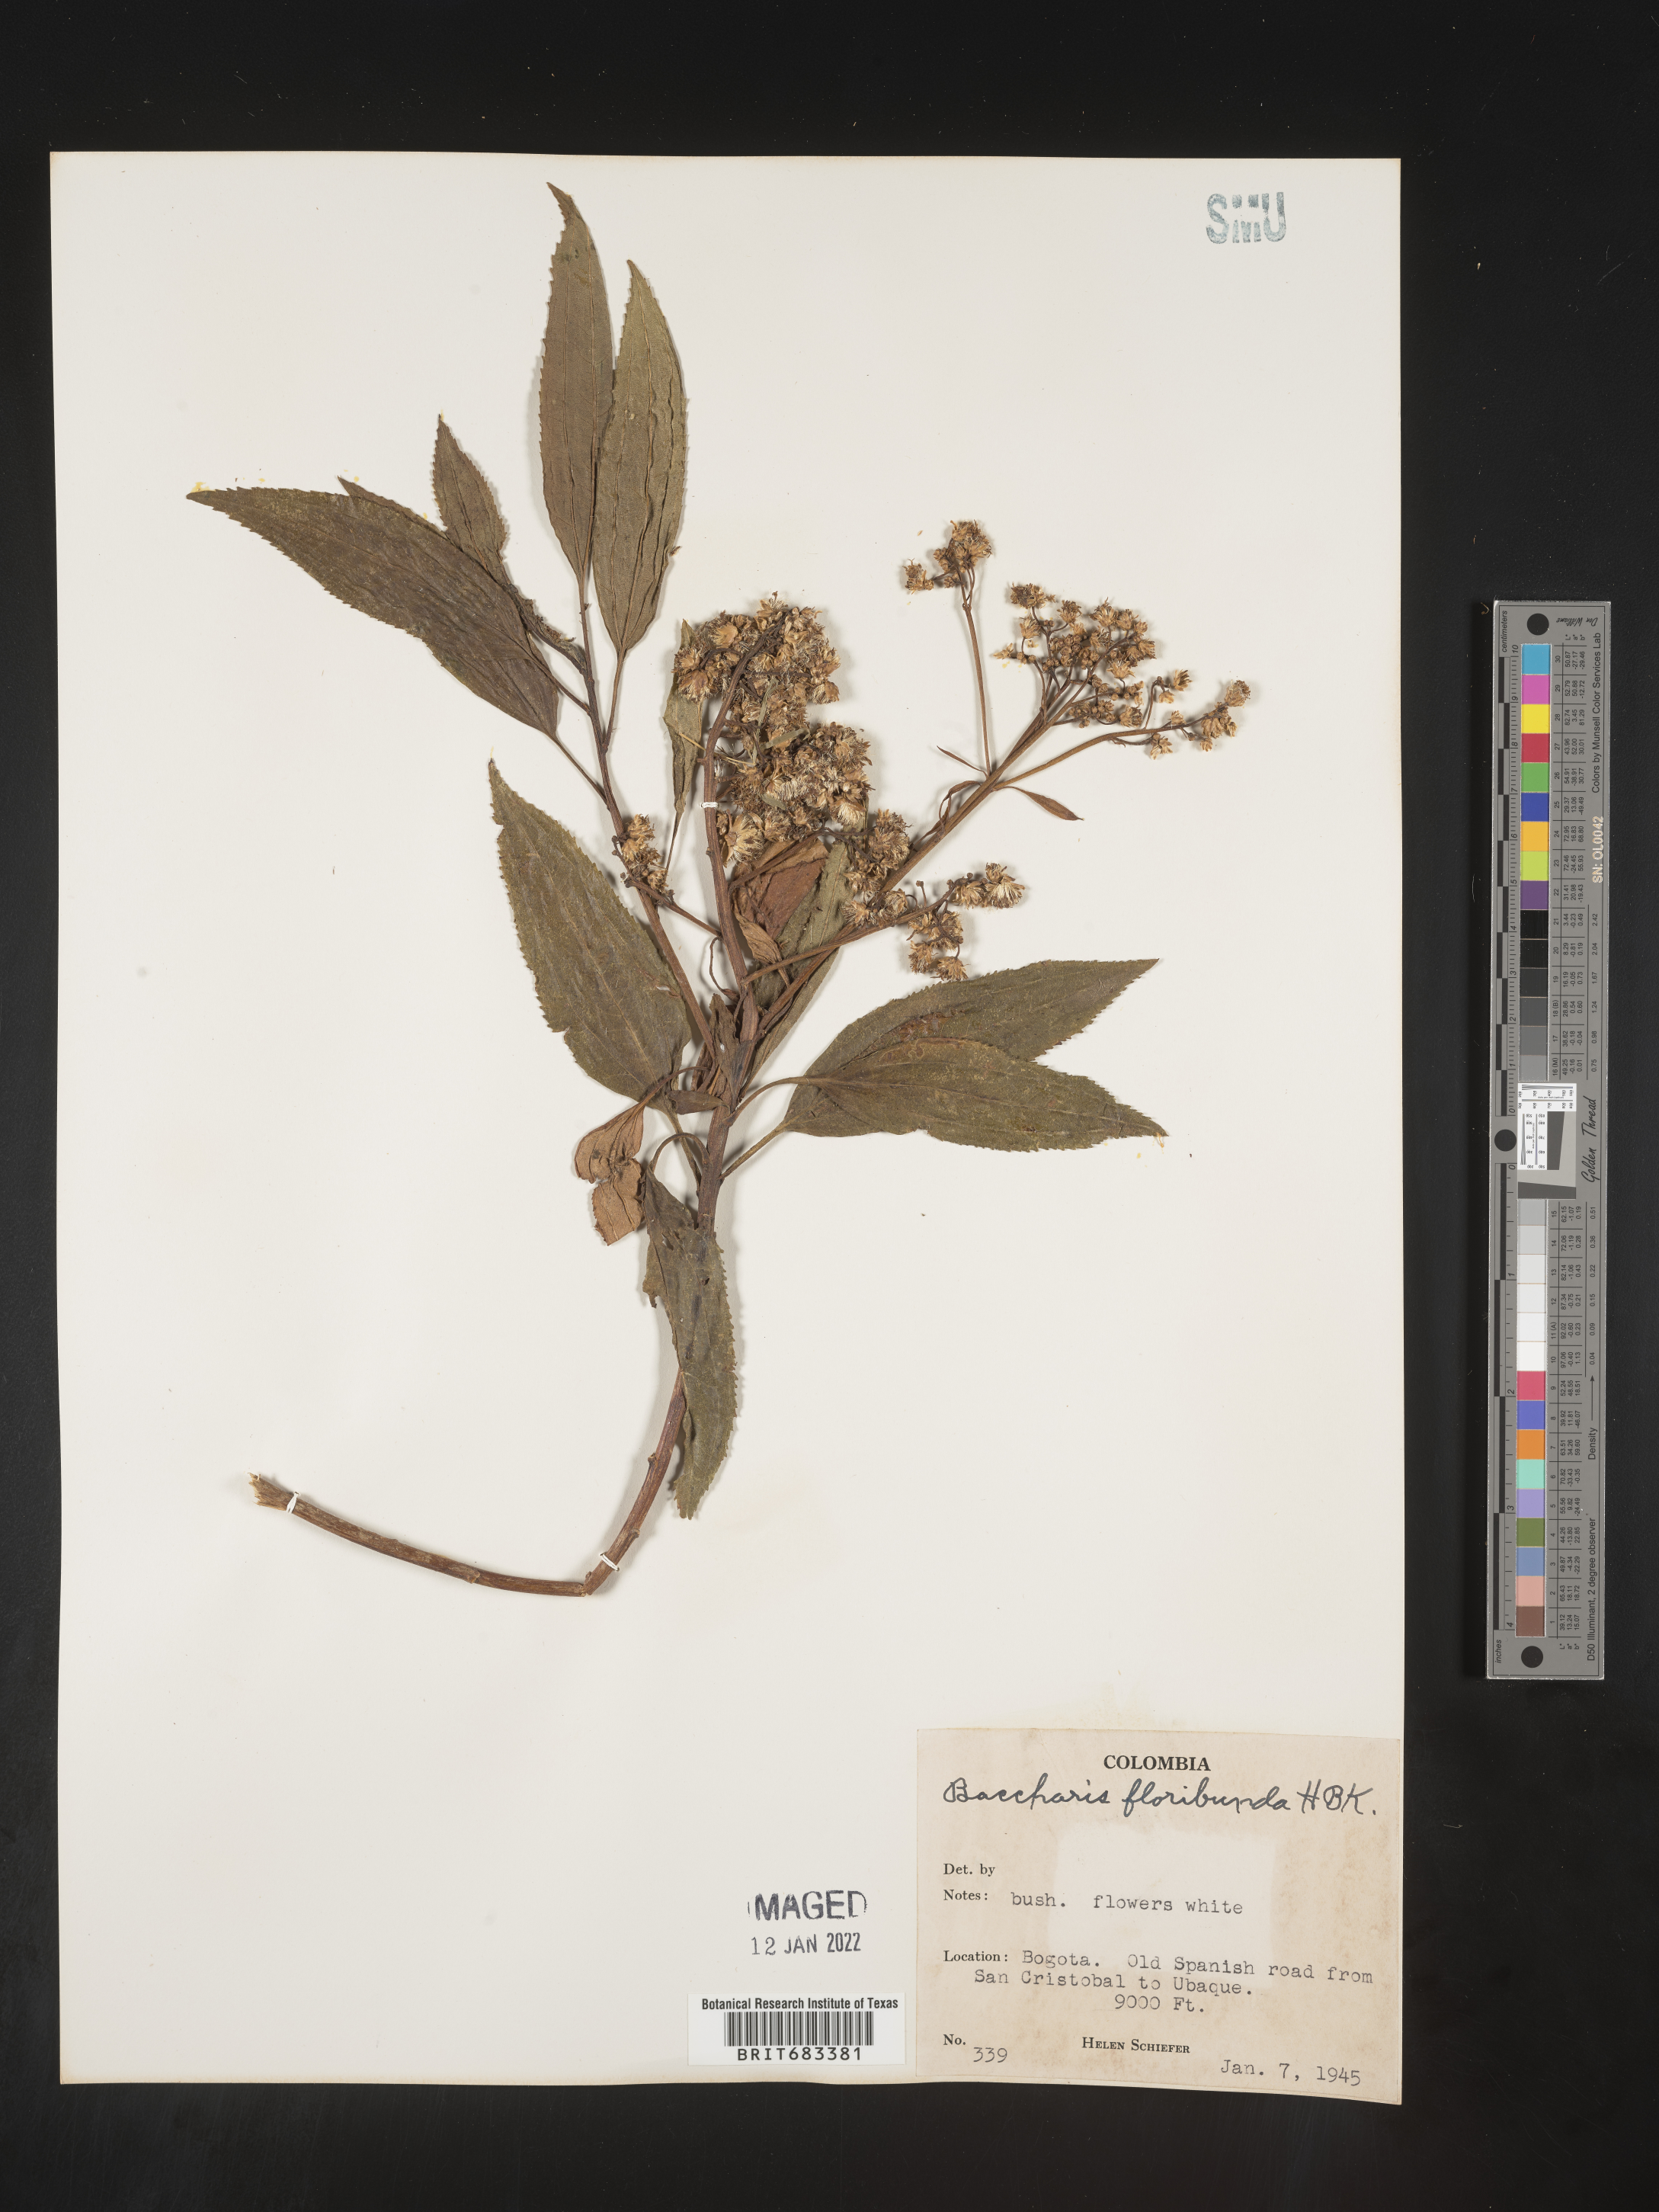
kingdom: Plantae
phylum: Tracheophyta
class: Magnoliopsida
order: Asterales
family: Asteraceae
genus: Baccharis
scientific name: Baccharis
